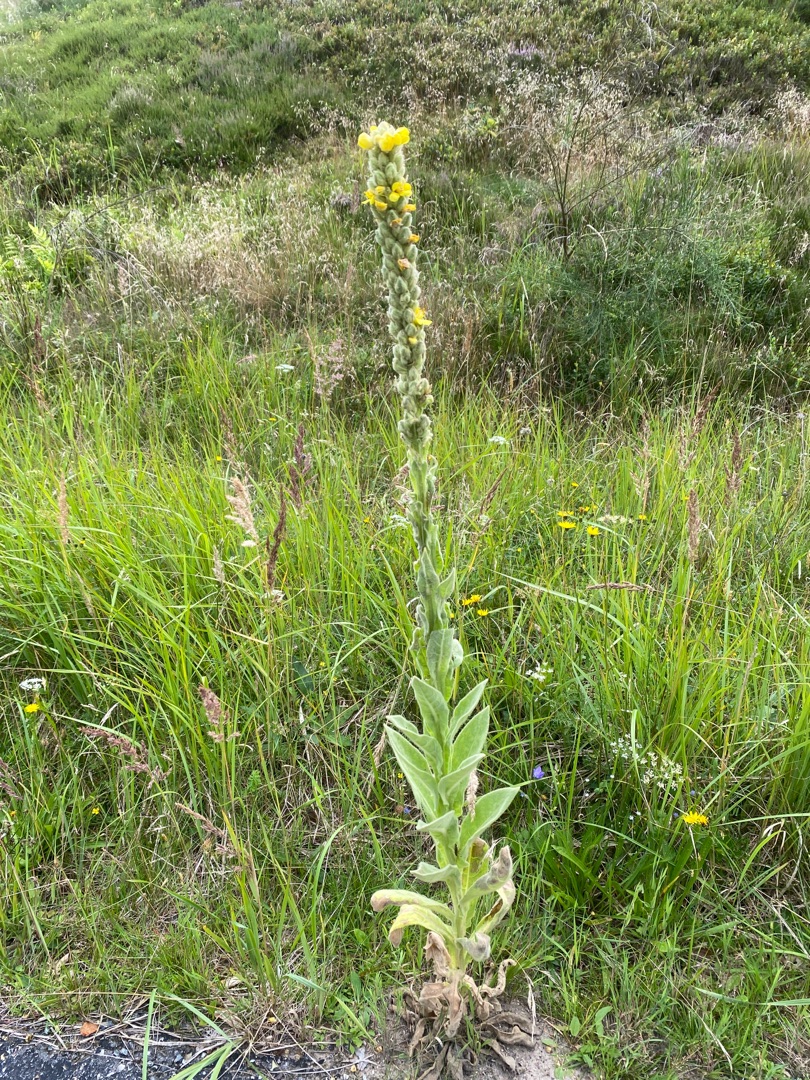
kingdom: Plantae
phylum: Tracheophyta
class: Magnoliopsida
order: Lamiales
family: Scrophulariaceae
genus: Verbascum
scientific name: Verbascum thapsus
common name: Filtbladet kongelys
